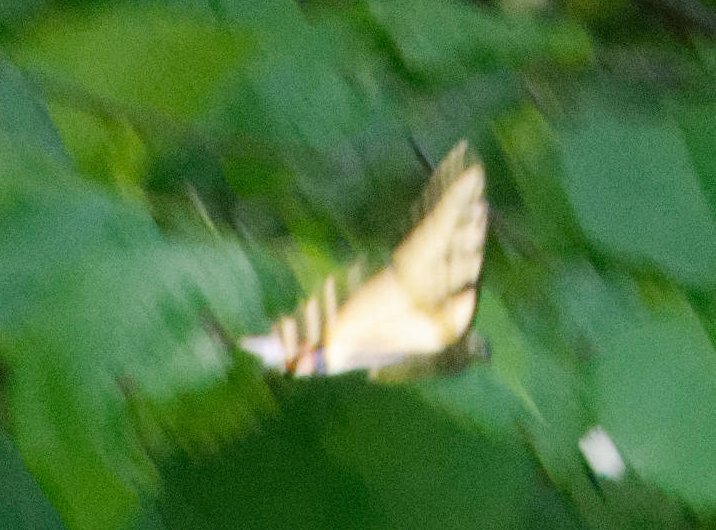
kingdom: Animalia
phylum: Arthropoda
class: Insecta
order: Lepidoptera
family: Papilionidae
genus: Pterourus
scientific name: Pterourus canadensis
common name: Canadian Tiger Swallowtail
